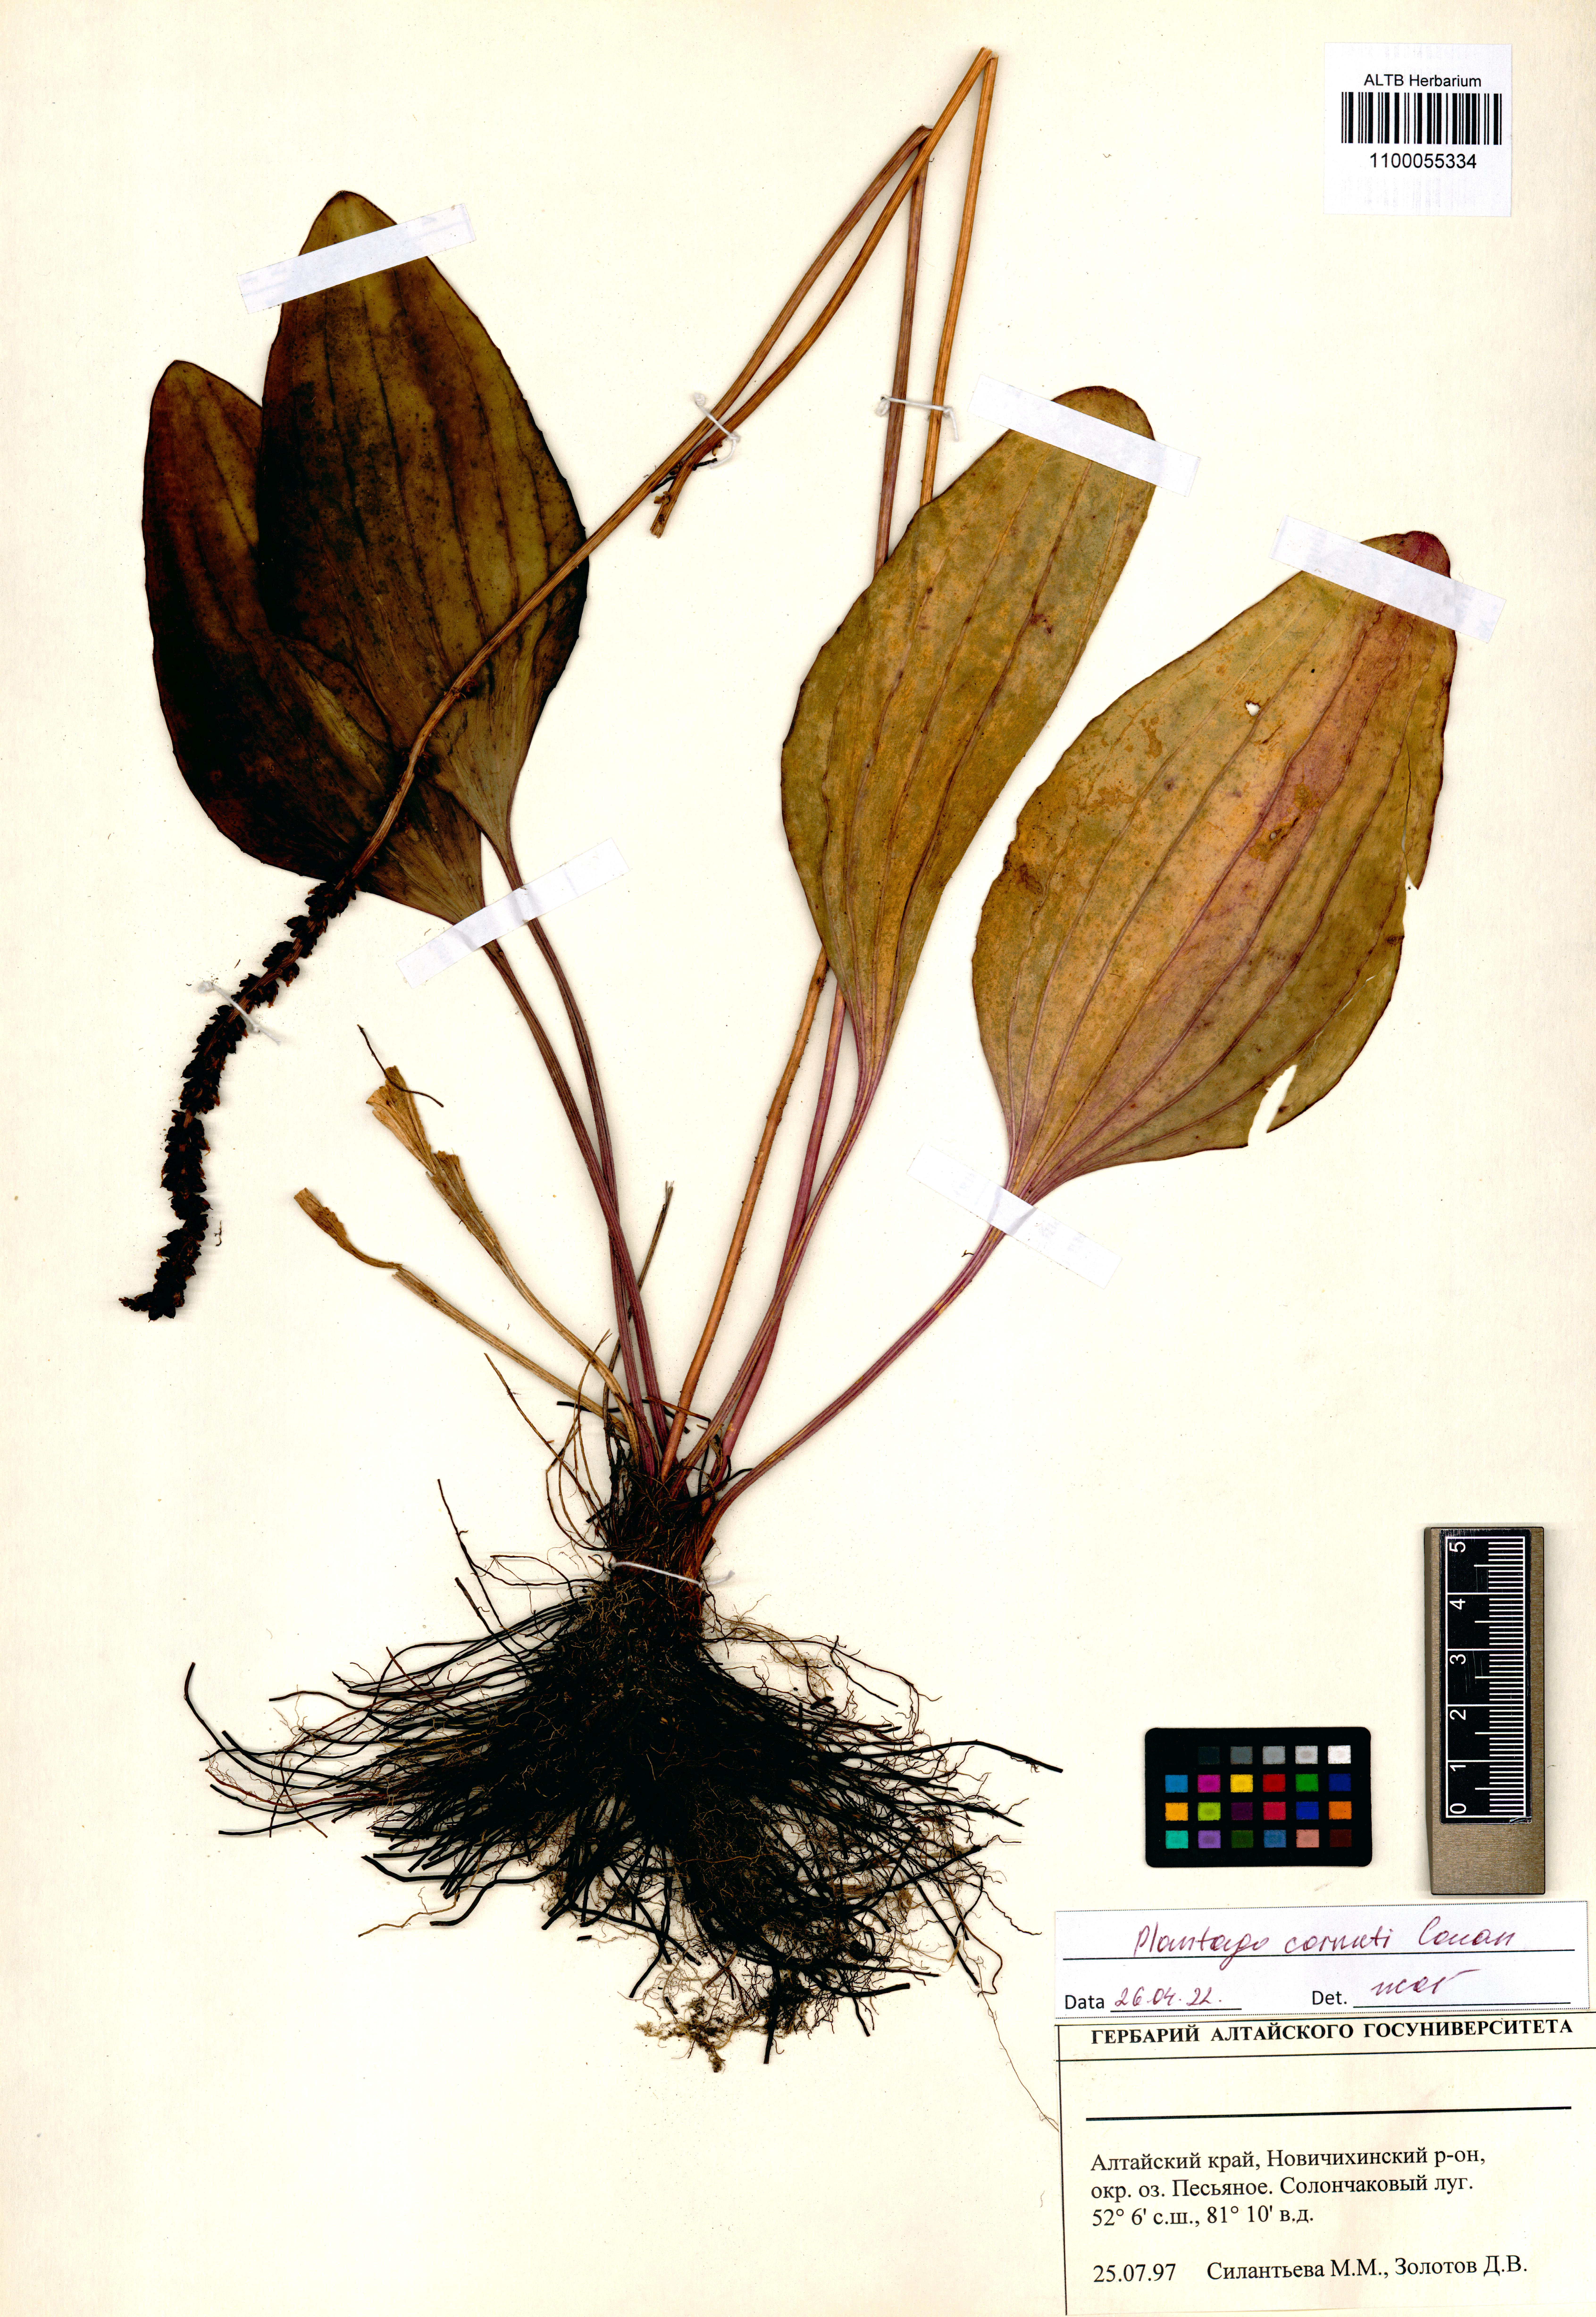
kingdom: Plantae
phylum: Tracheophyta
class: Magnoliopsida
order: Lamiales
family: Plantaginaceae
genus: Plantago
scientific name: Plantago cornuti
